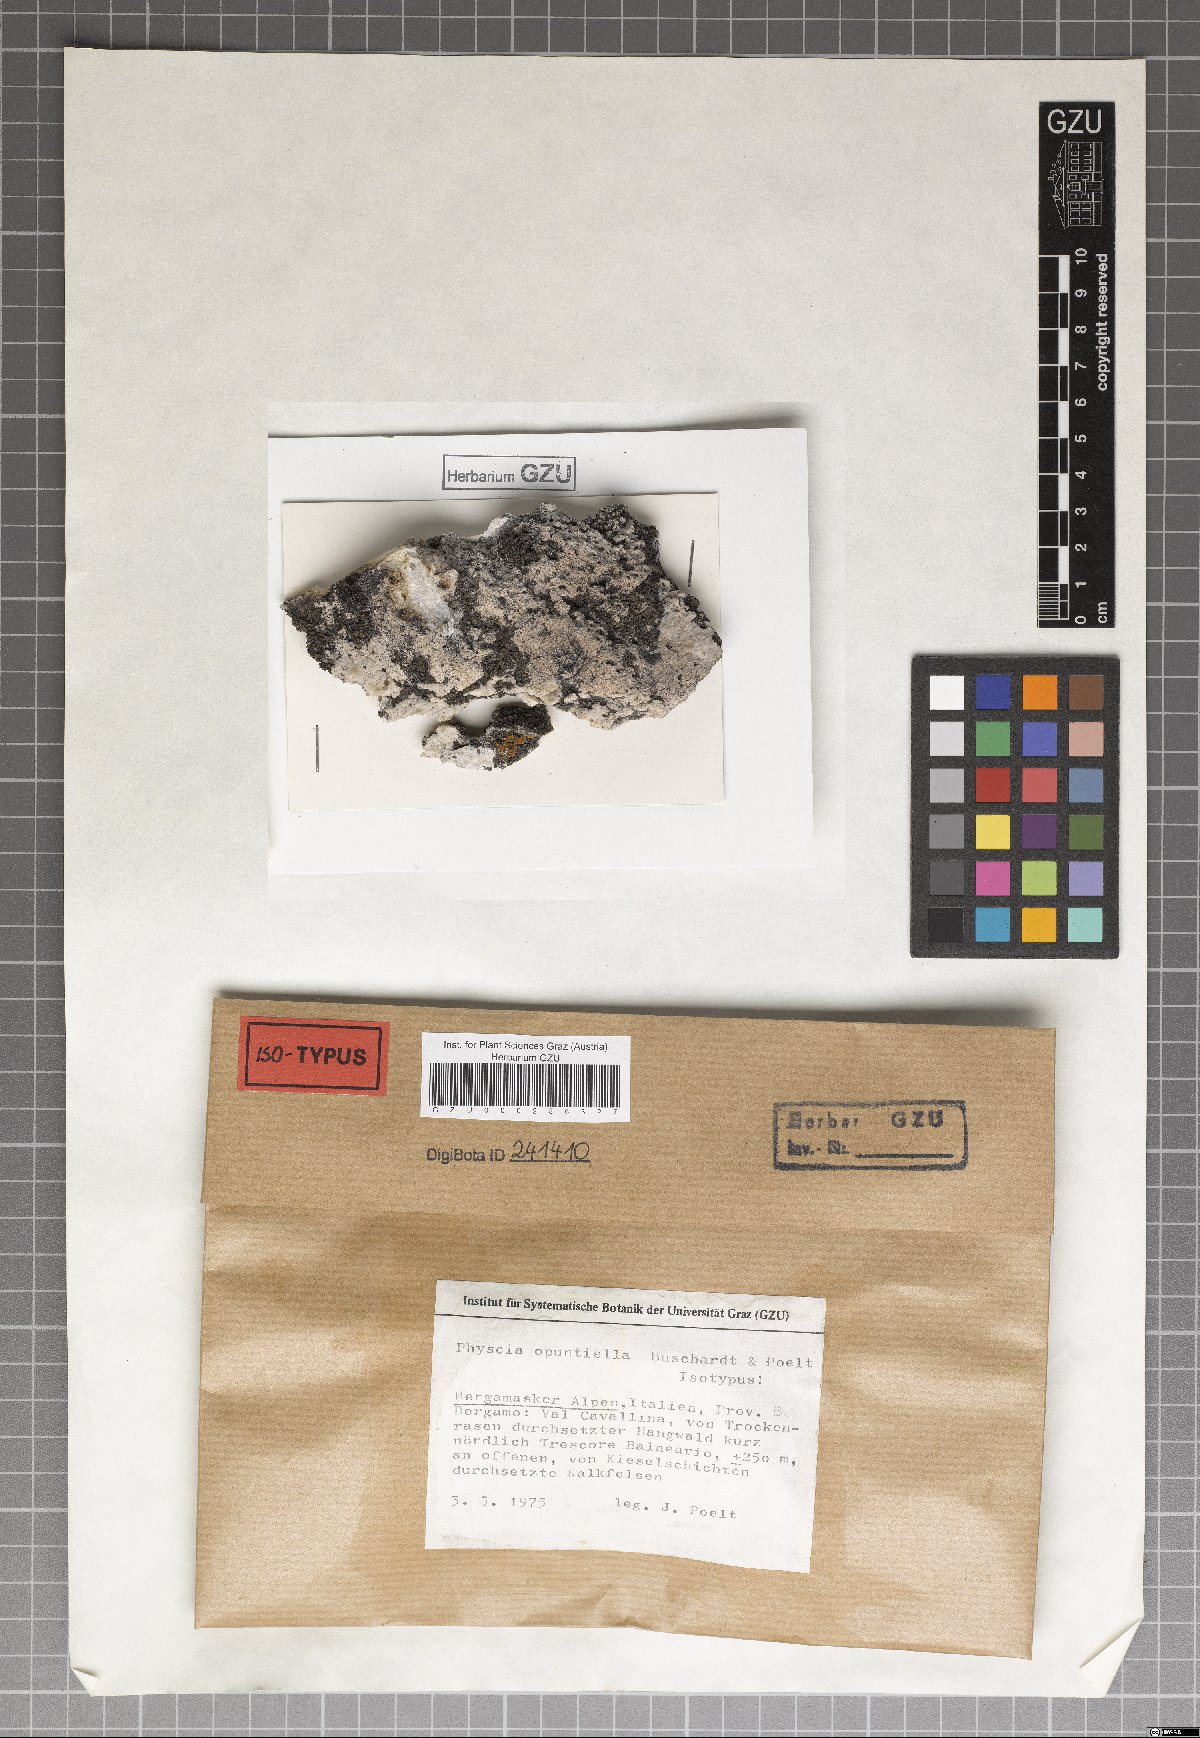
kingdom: Fungi
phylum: Ascomycota
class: Eurotiomycetes
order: Verrucariales
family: Verrucariaceae
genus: Agonimia
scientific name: Agonimia opuntiella
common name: Cactus lichen
